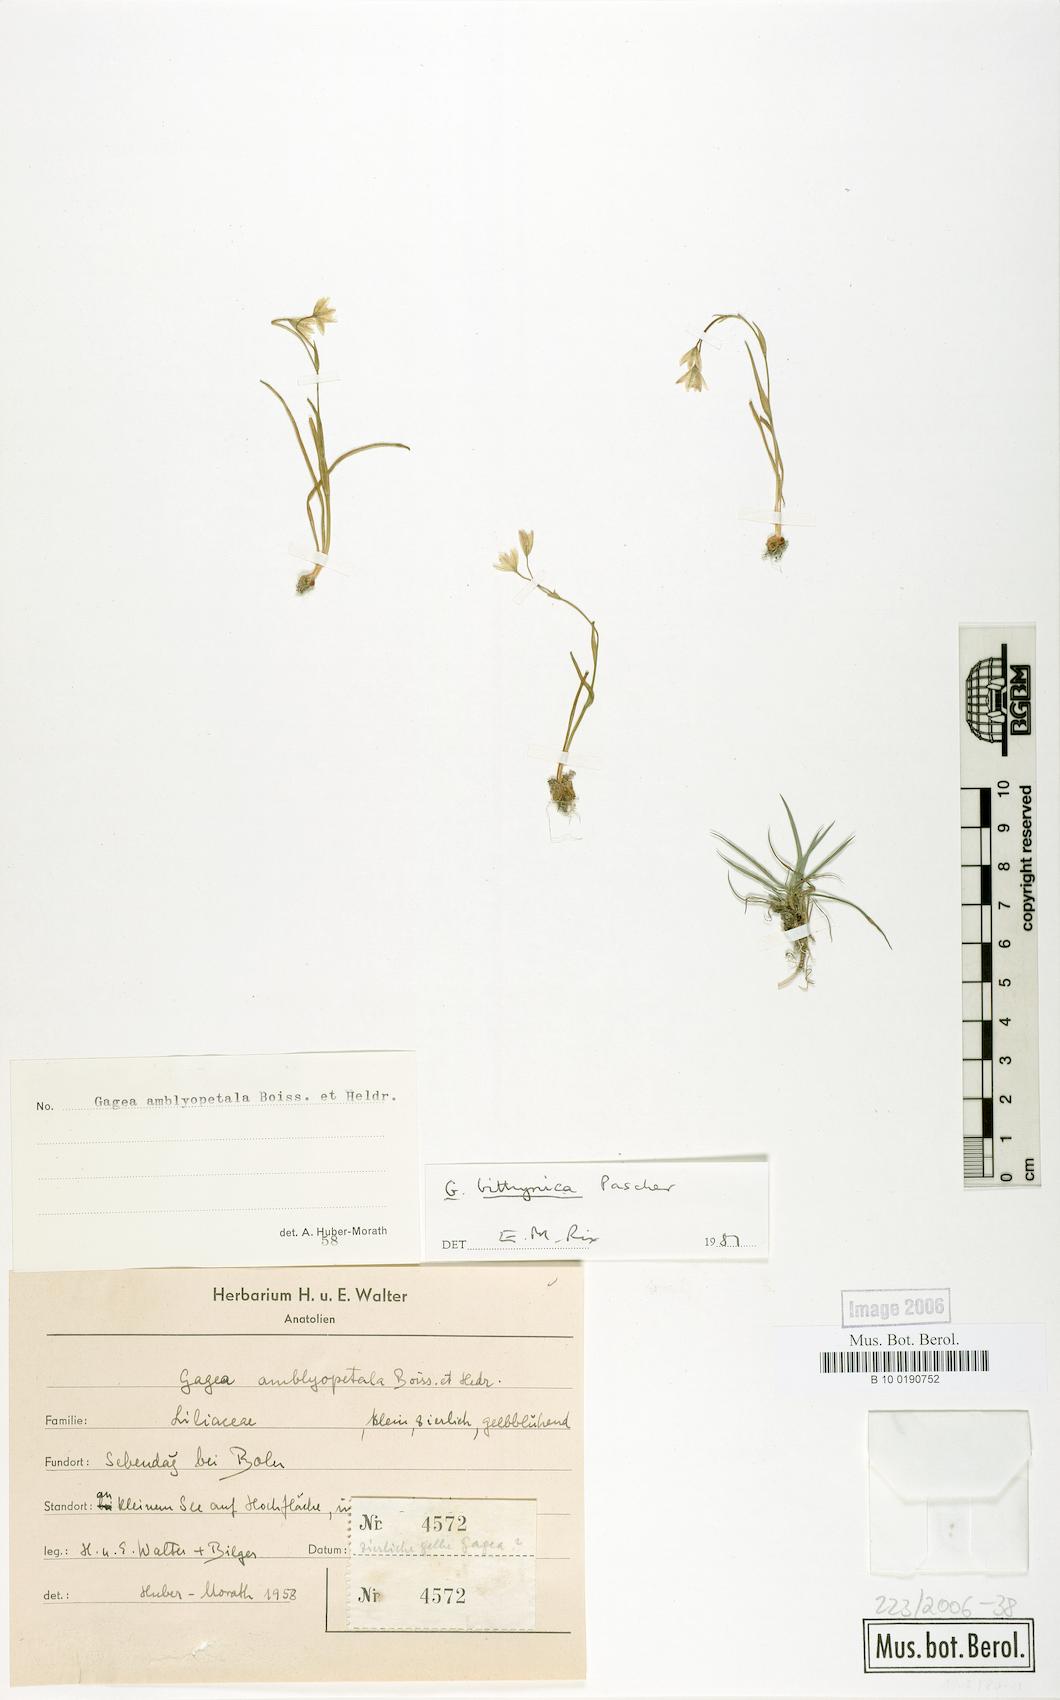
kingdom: Plantae
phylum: Tracheophyta
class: Liliopsida
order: Liliales
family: Liliaceae
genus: Gagea
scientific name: Gagea bithynica
